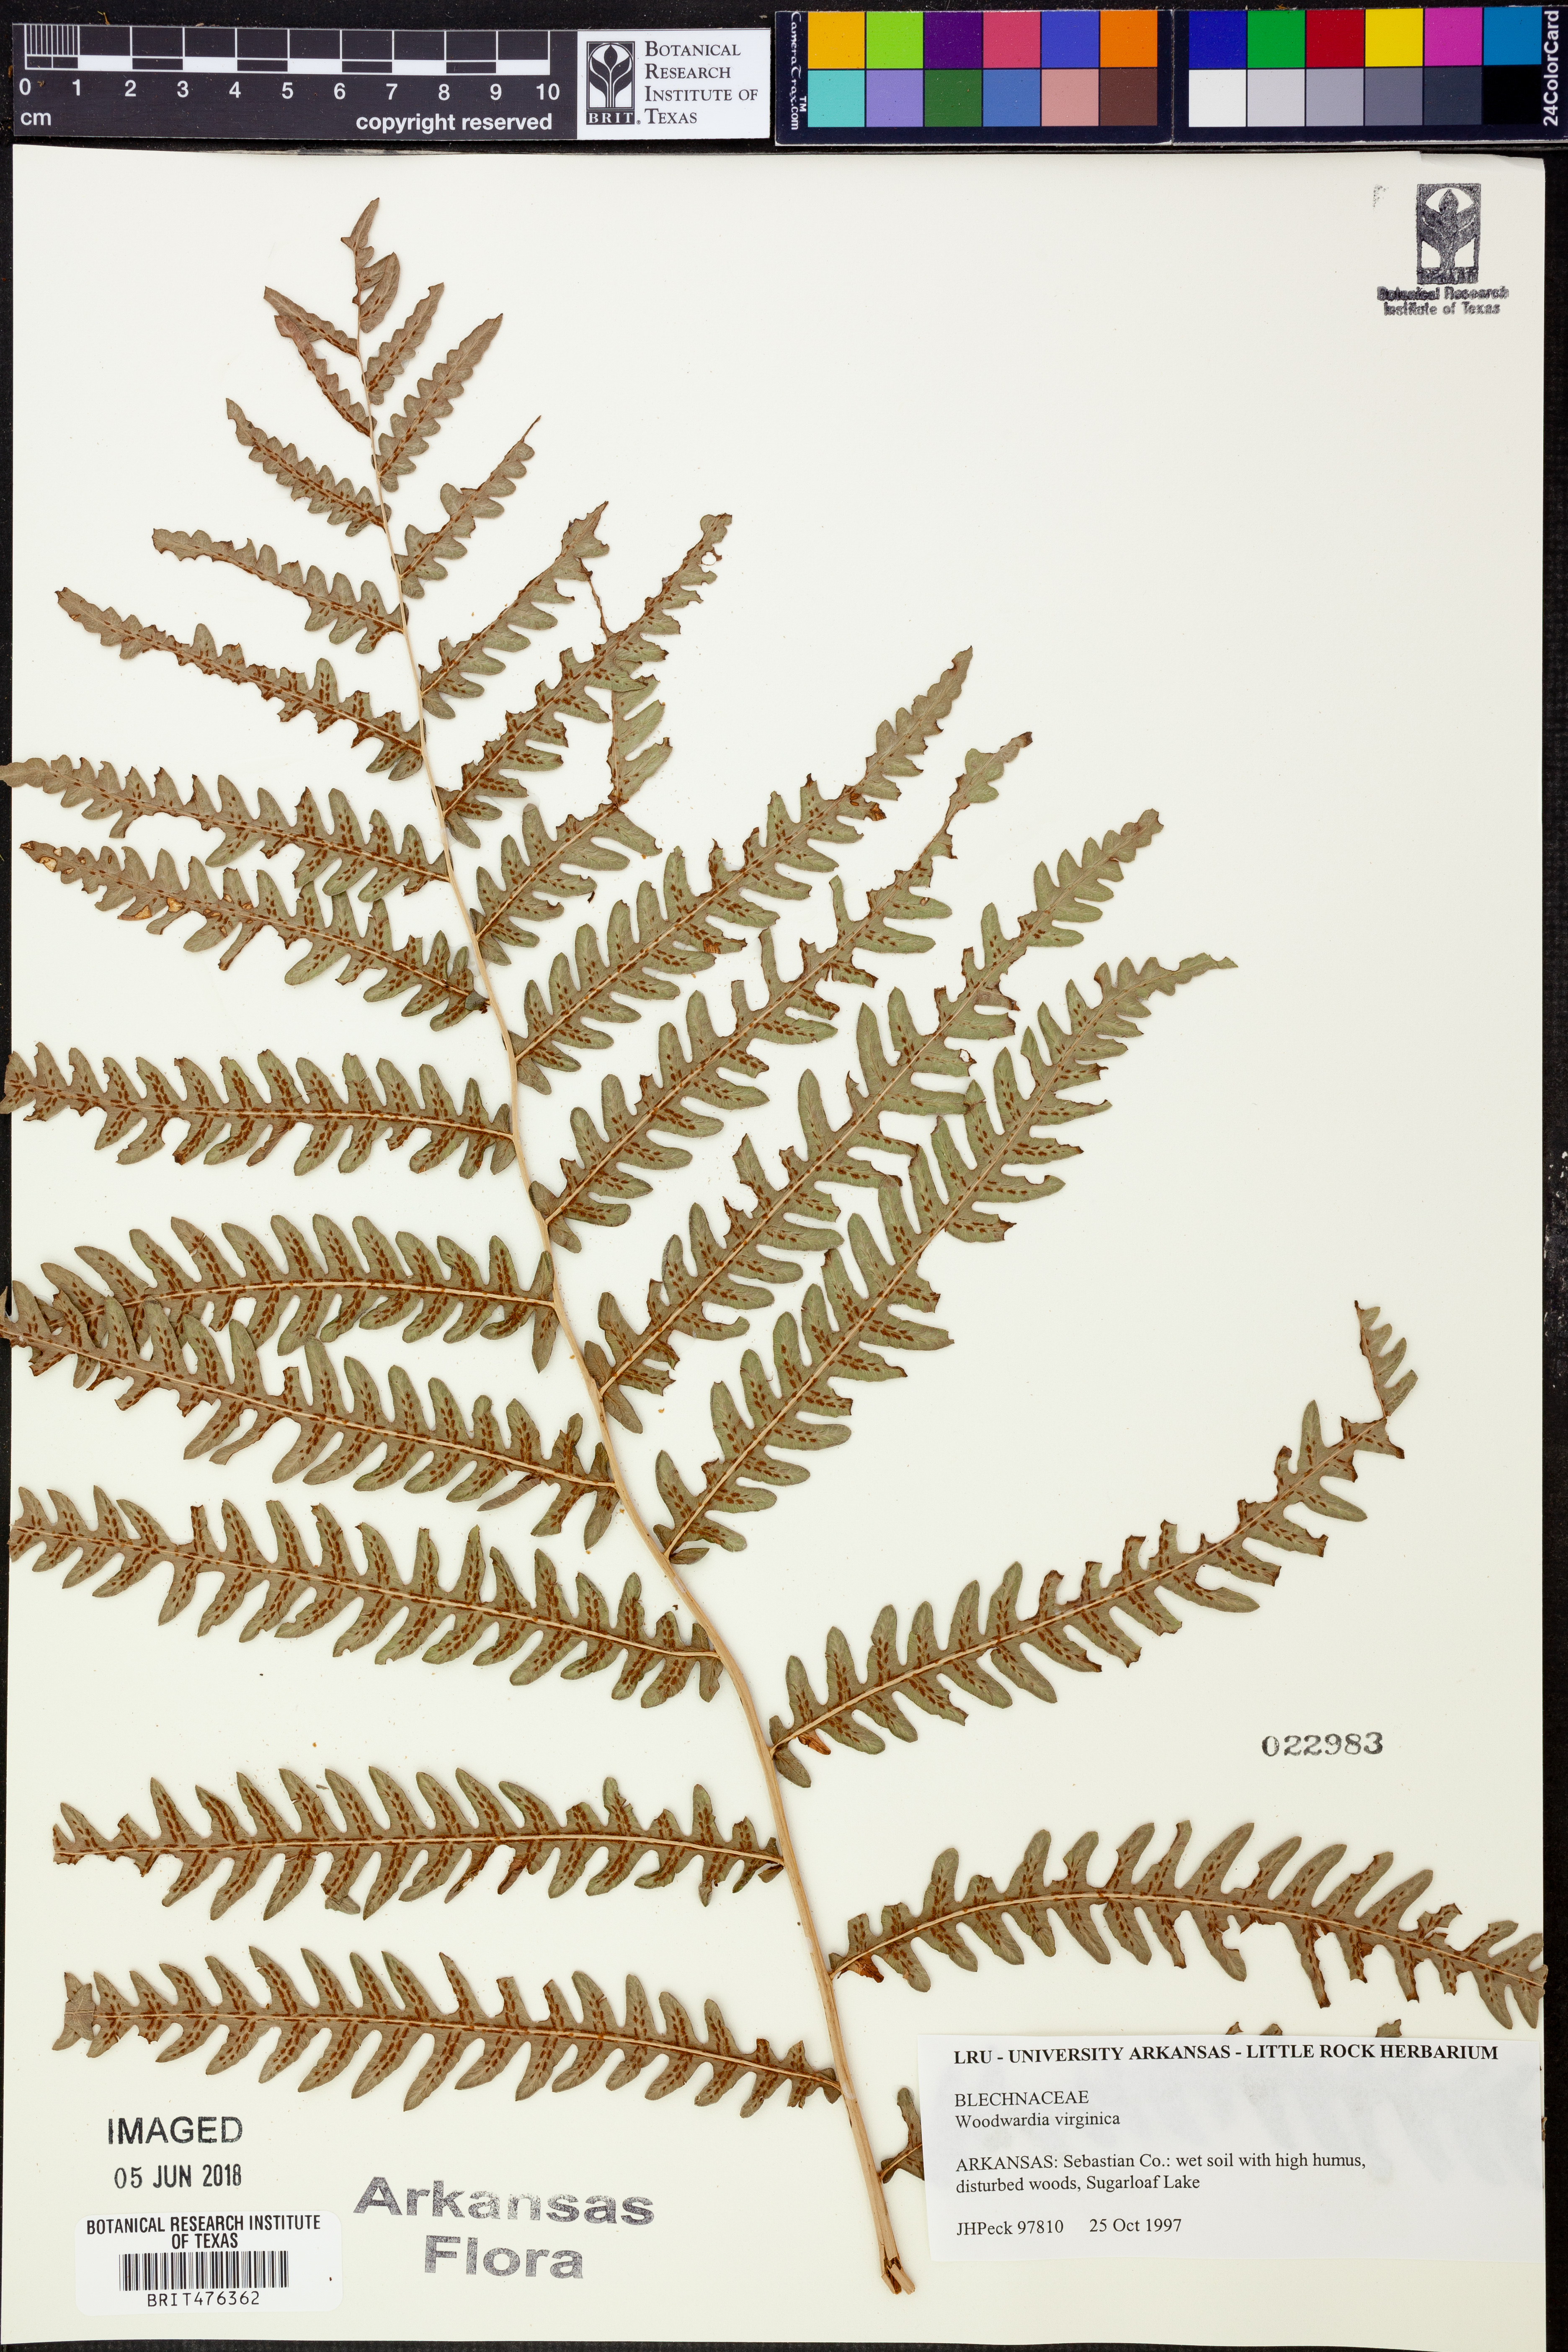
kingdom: Plantae
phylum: Tracheophyta
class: Polypodiopsida
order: Polypodiales
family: Blechnaceae
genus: Anchistea
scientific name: Anchistea virginica
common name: Virginia chain fern
